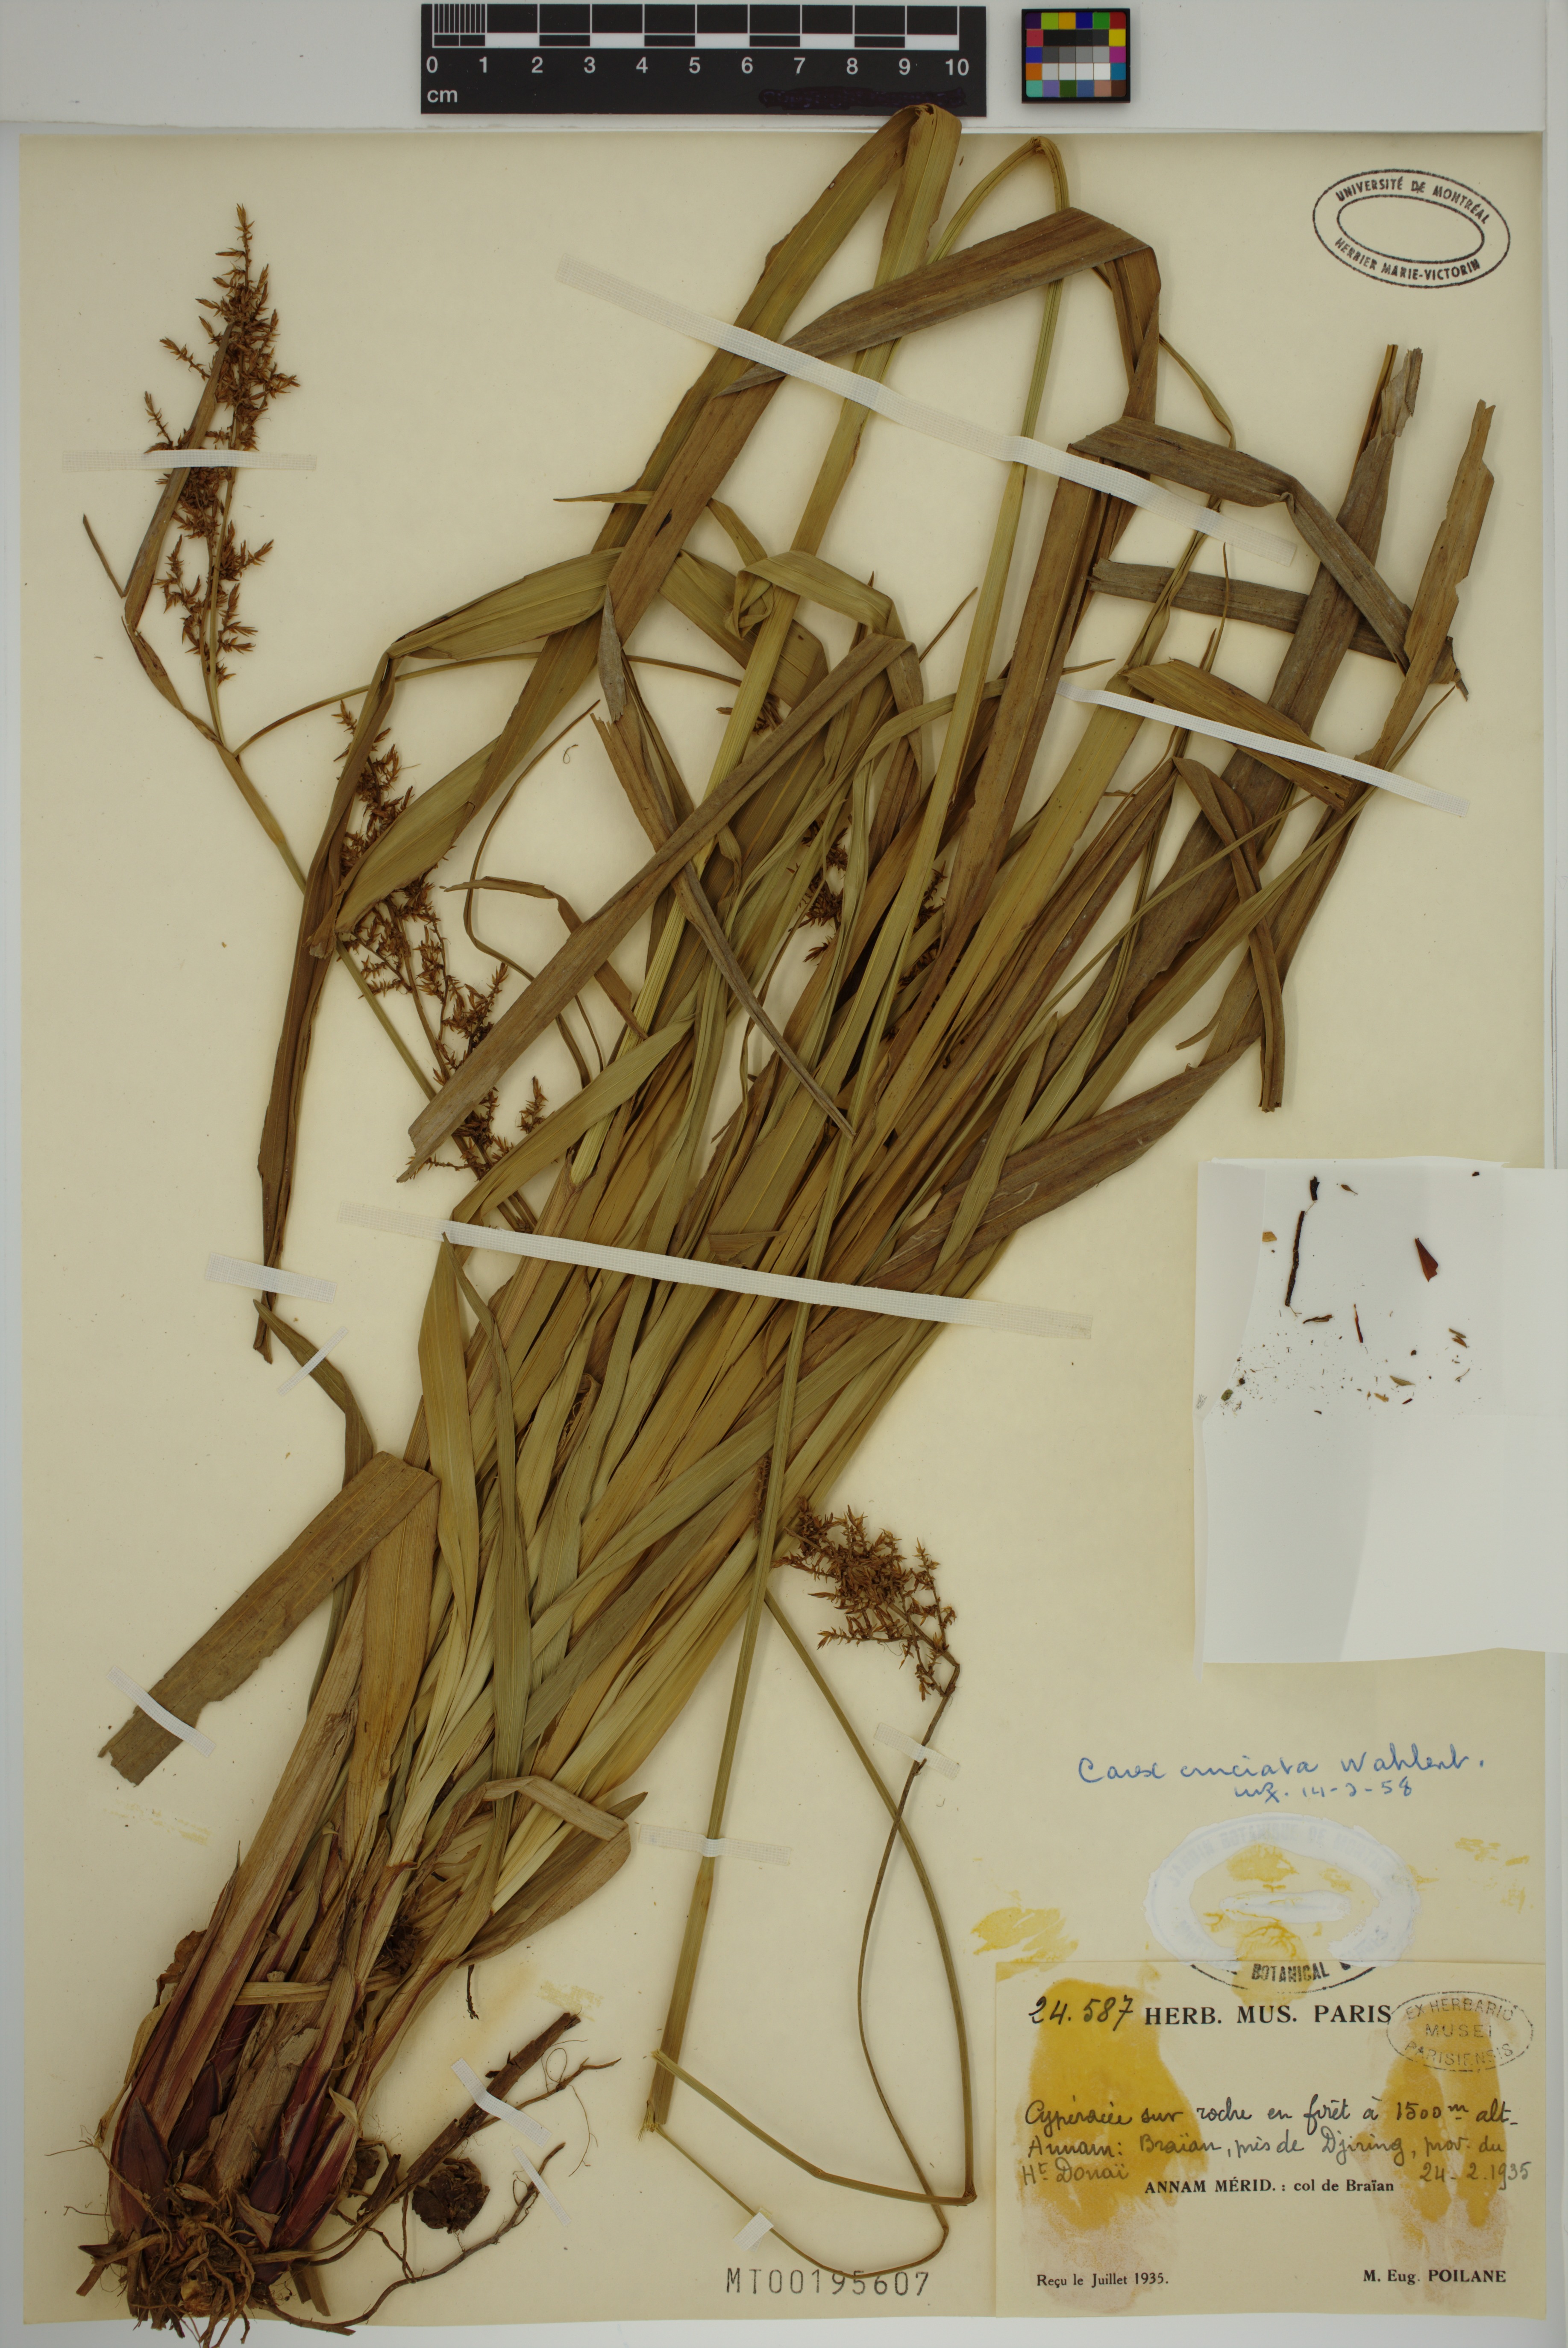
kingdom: Plantae
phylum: Tracheophyta
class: Liliopsida
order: Poales
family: Cyperaceae
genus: Carex
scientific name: Carex cruciata
